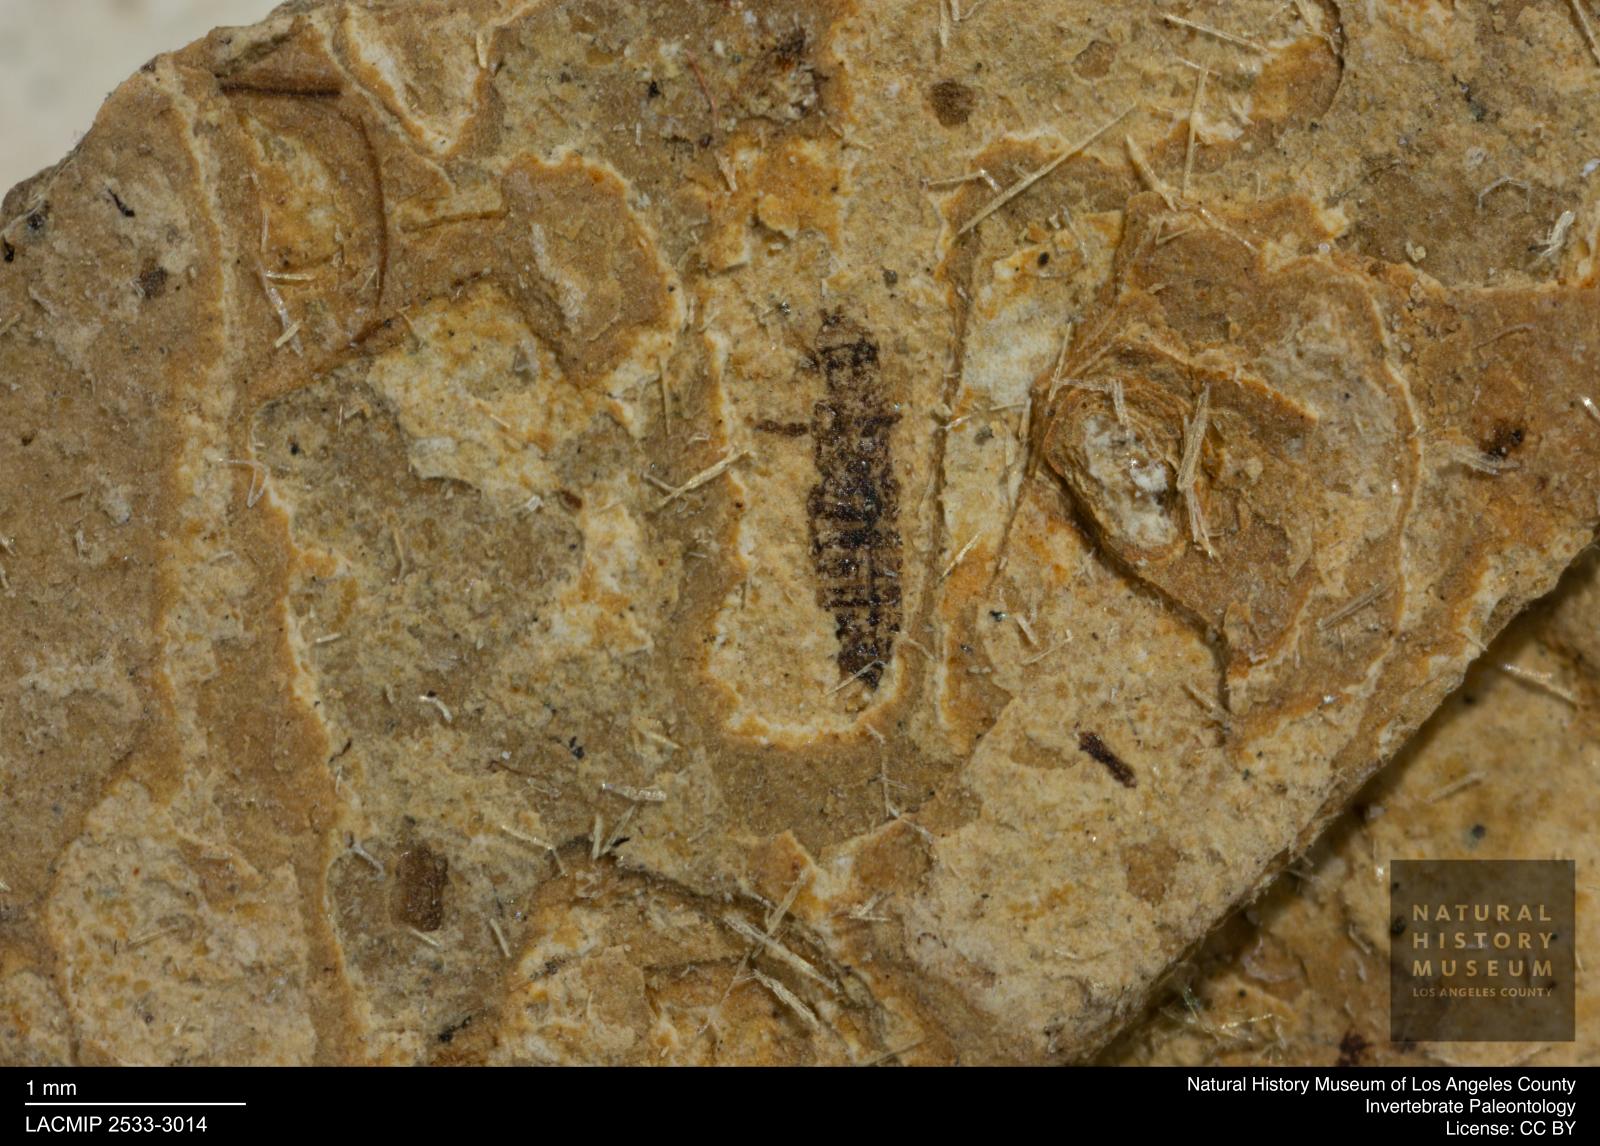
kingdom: Animalia
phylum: Arthropoda
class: Insecta
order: Thysanoptera
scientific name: Thysanoptera
